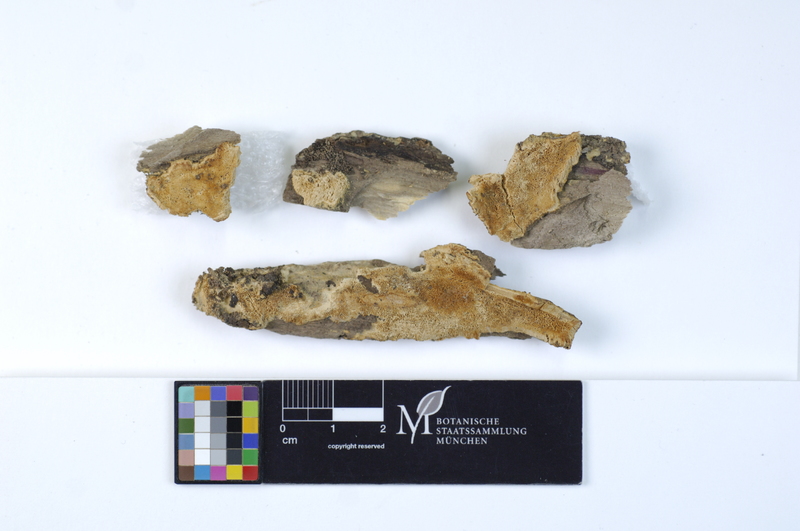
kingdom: Fungi
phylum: Basidiomycota
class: Agaricomycetes
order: Hymenochaetales
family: Oxyporaceae
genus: Oxyporus
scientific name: Oxyporus obducens
